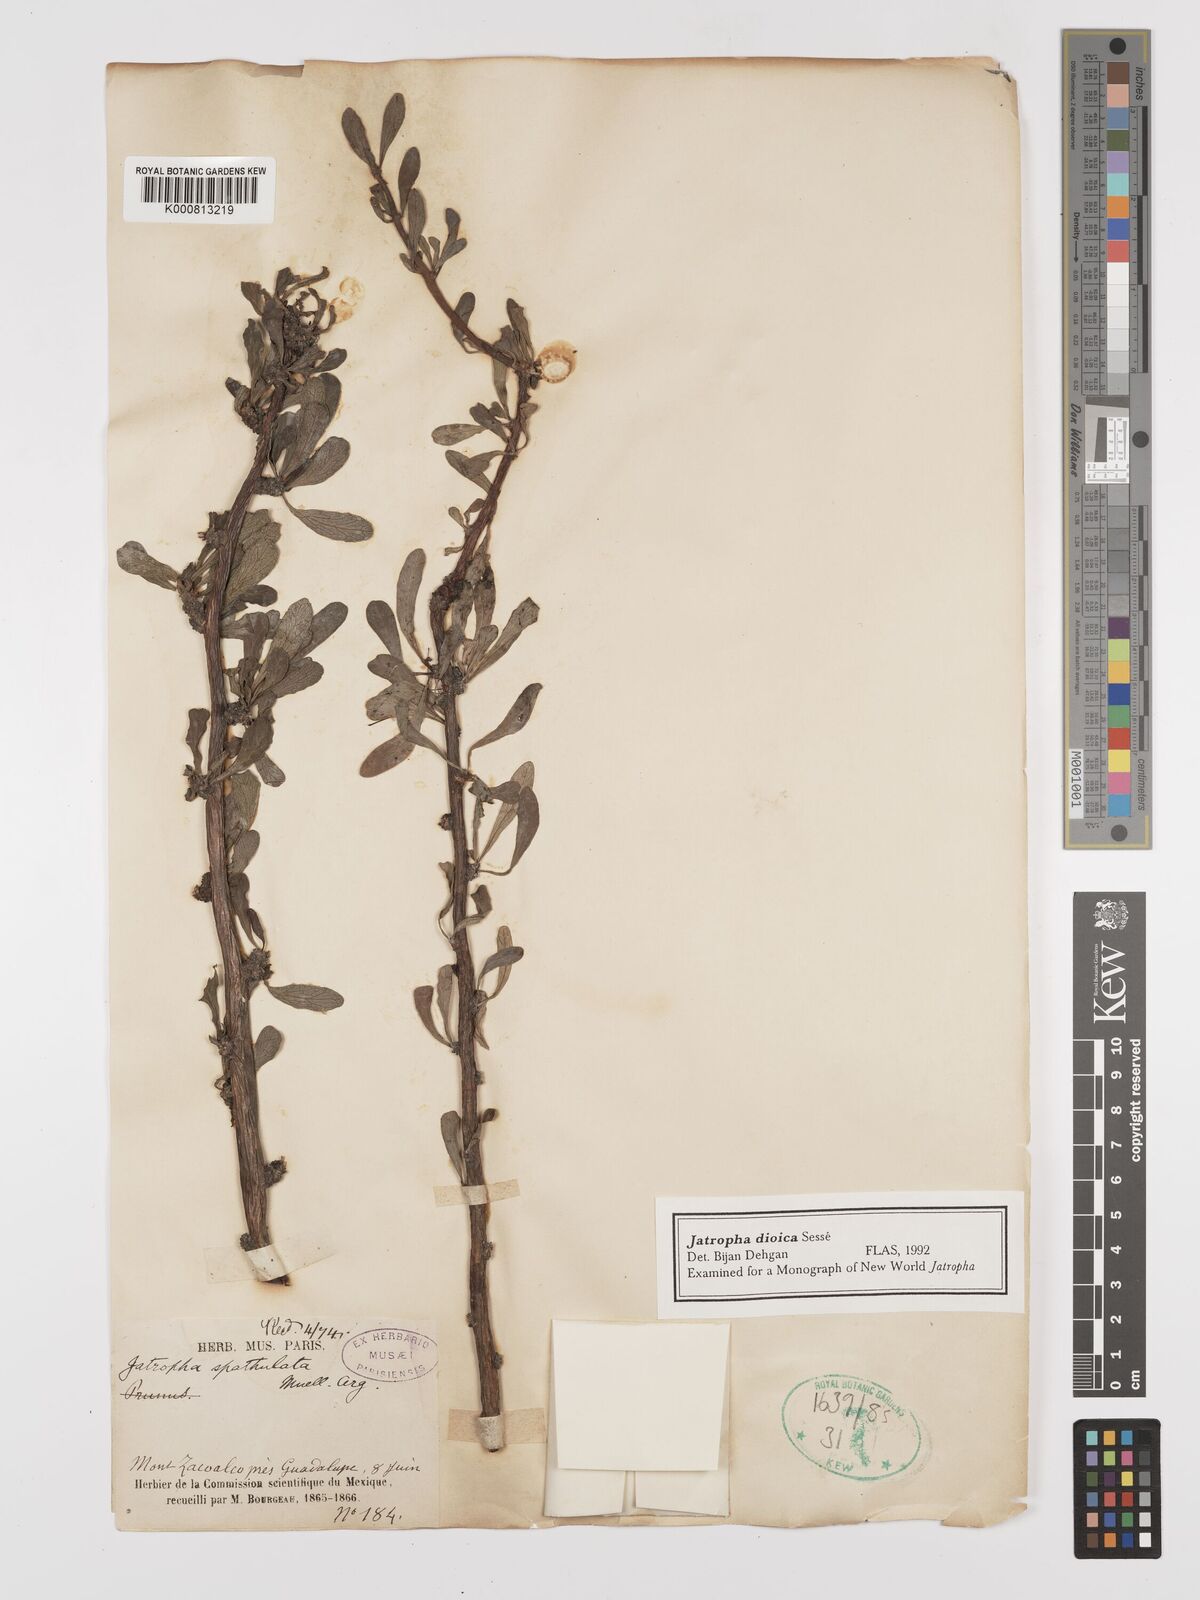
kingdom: Plantae
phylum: Tracheophyta
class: Magnoliopsida
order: Malpighiales
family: Euphorbiaceae
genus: Jatropha
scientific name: Jatropha
